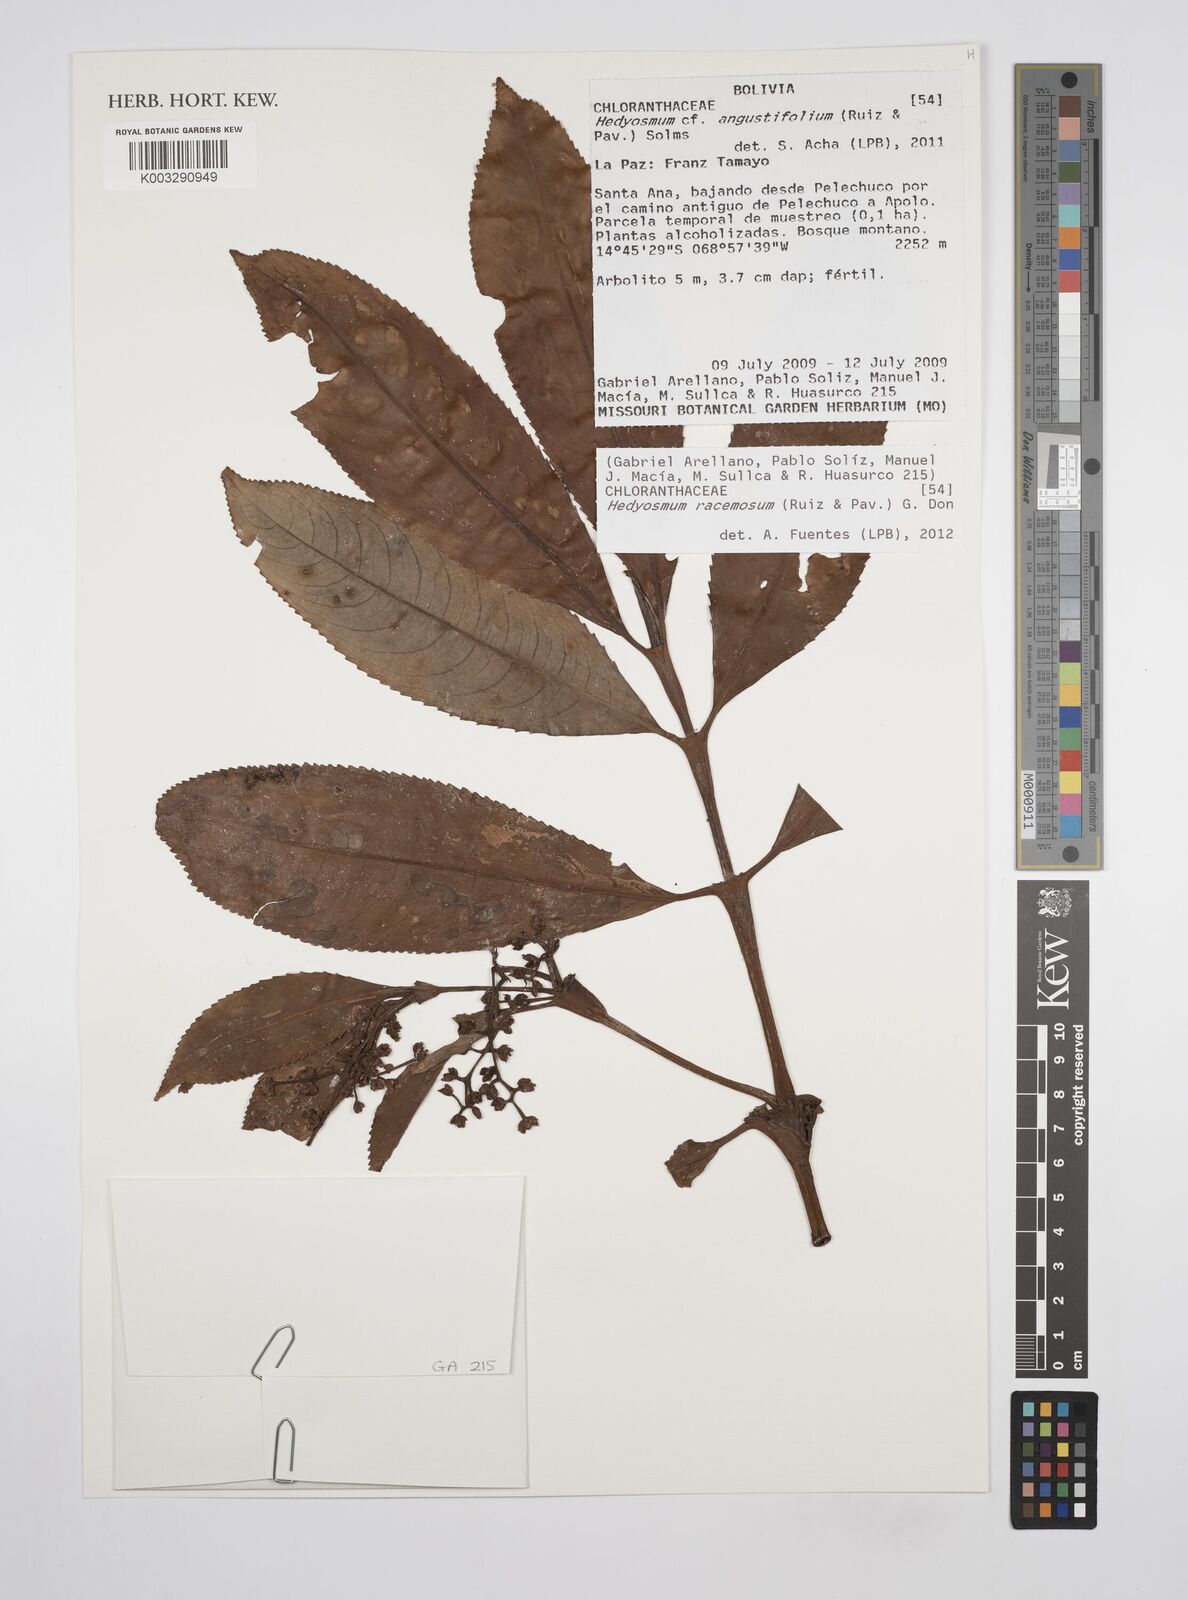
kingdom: Plantae
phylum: Tracheophyta
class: Magnoliopsida
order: Chloranthales
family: Chloranthaceae
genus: Hedyosmum
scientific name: Hedyosmum racemosum
